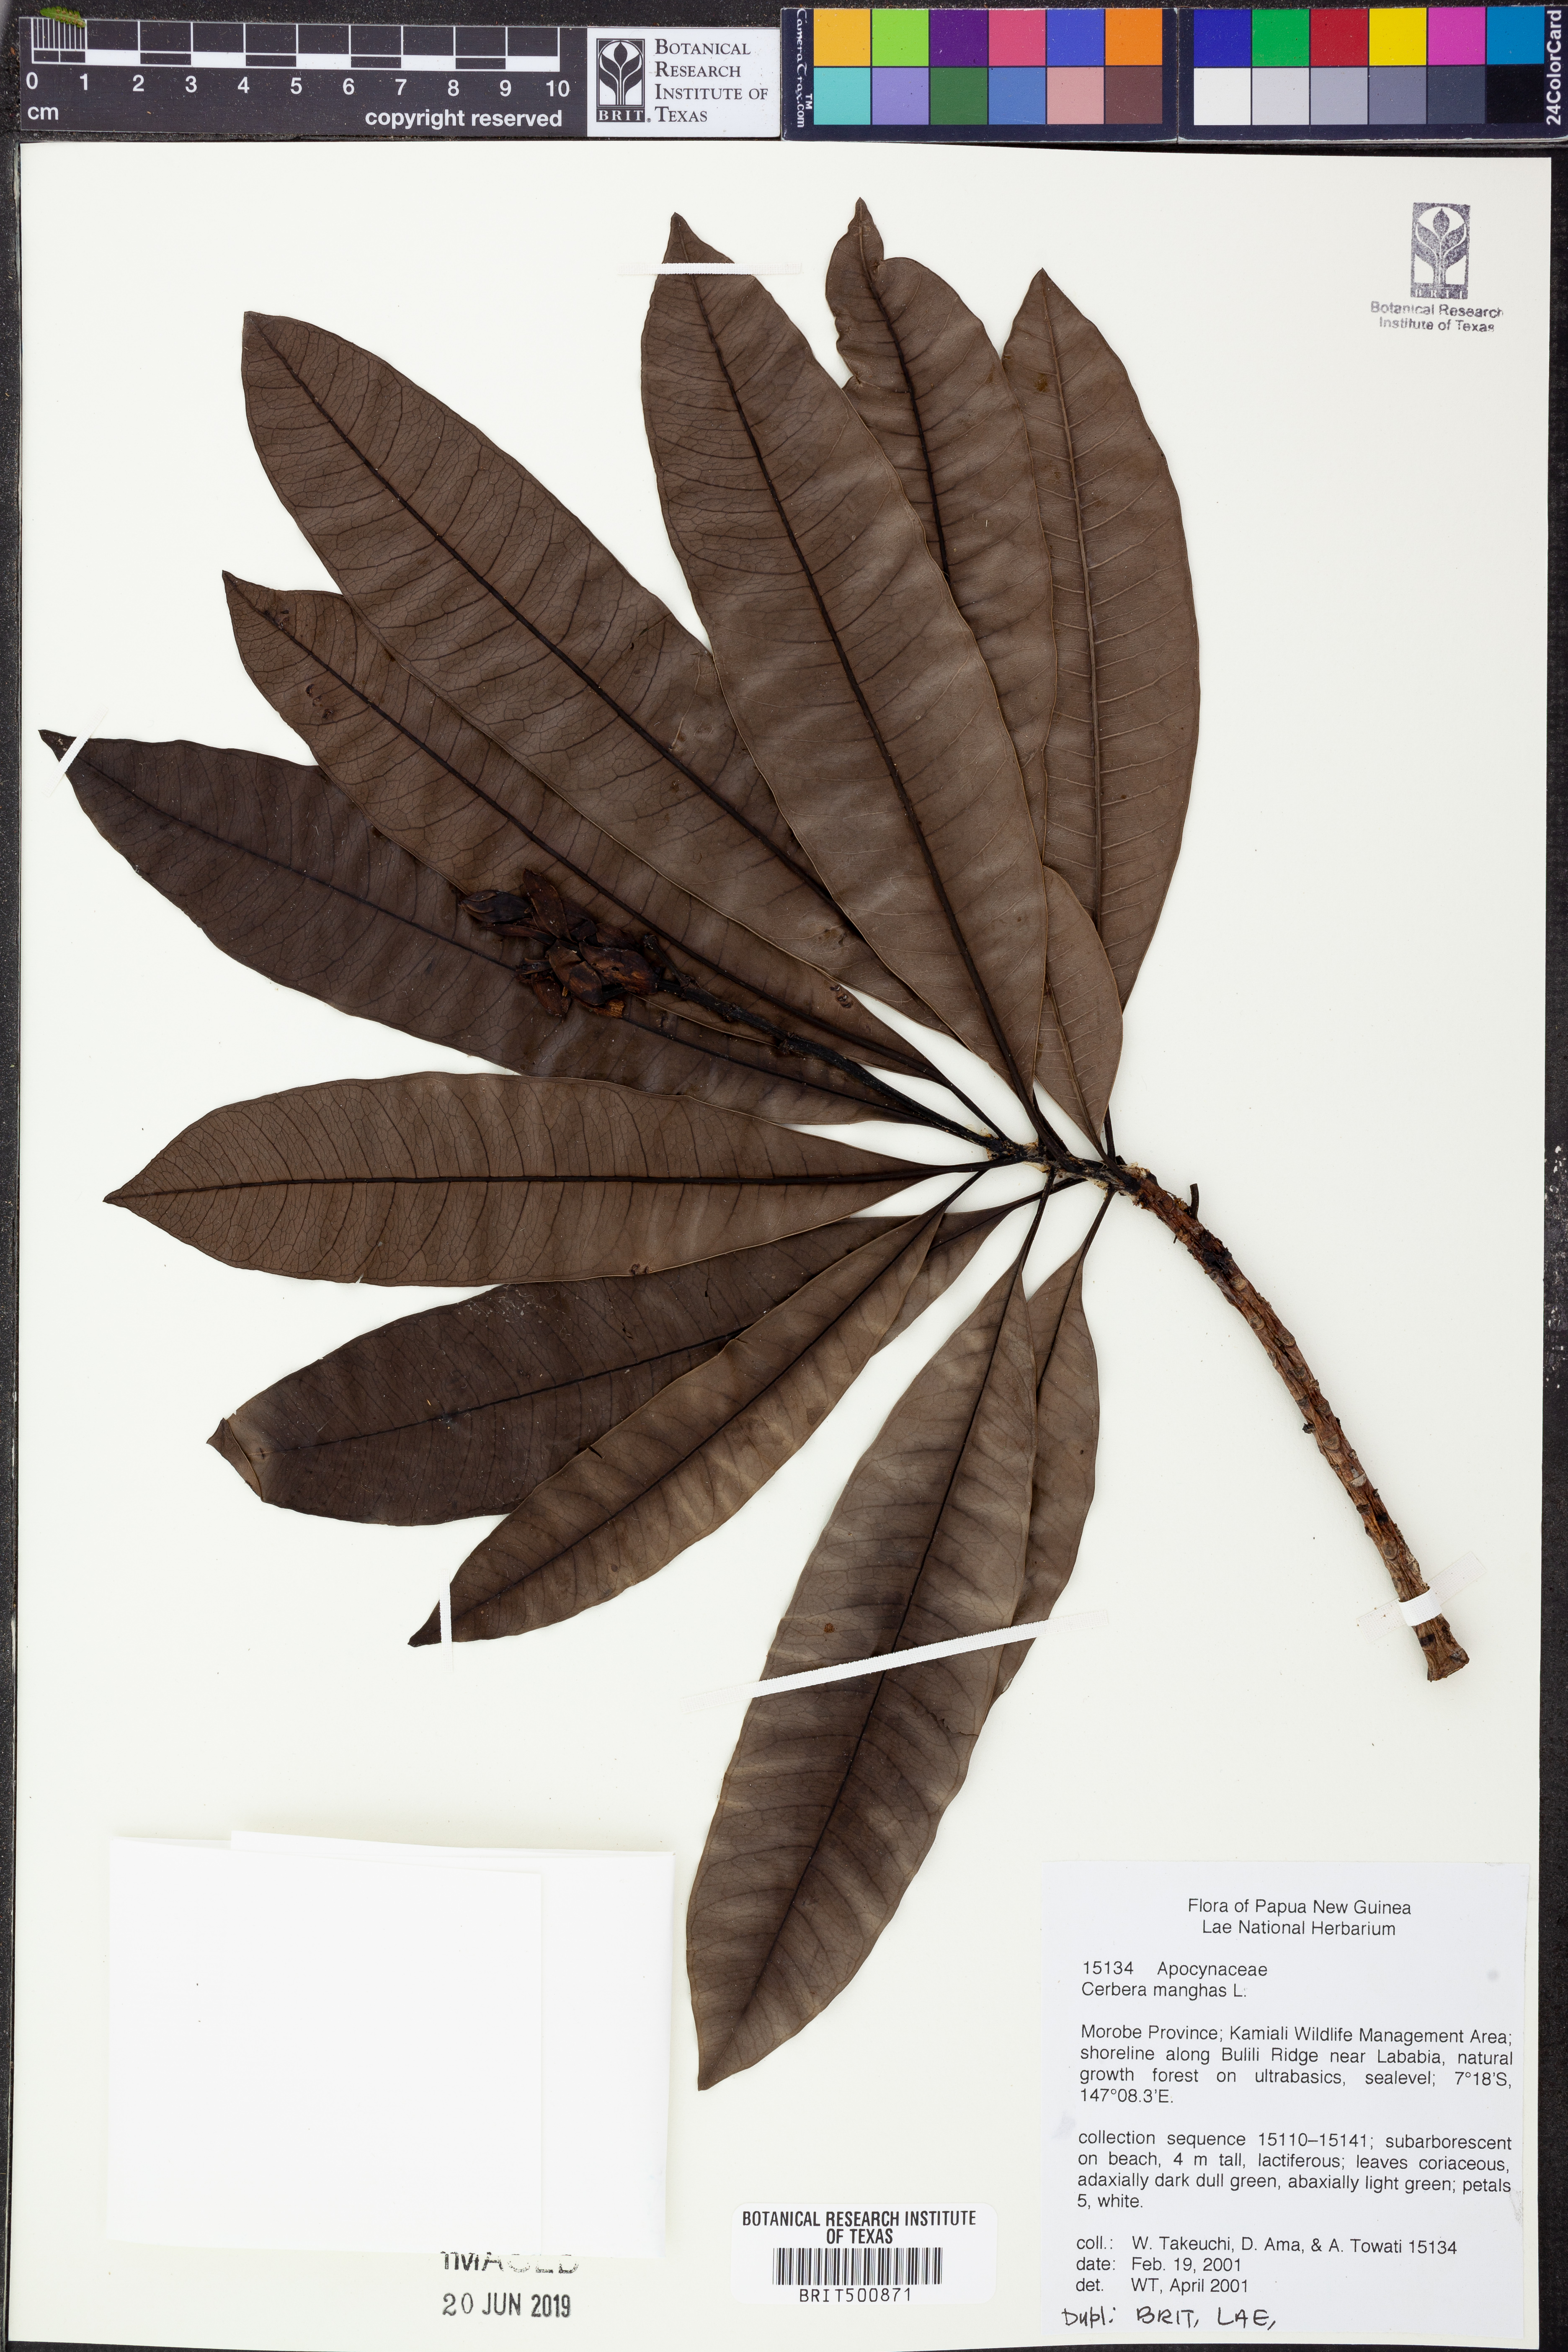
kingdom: Plantae
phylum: Tracheophyta
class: Magnoliopsida
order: Gentianales
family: Apocynaceae
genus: Cerbera
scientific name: Cerbera manghas
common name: Reva
